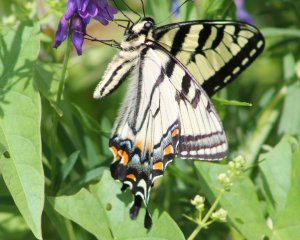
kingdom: Animalia
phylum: Arthropoda
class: Insecta
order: Lepidoptera
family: Papilionidae
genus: Pterourus
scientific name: Pterourus canadensis
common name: Canadian Tiger Swallowtail
